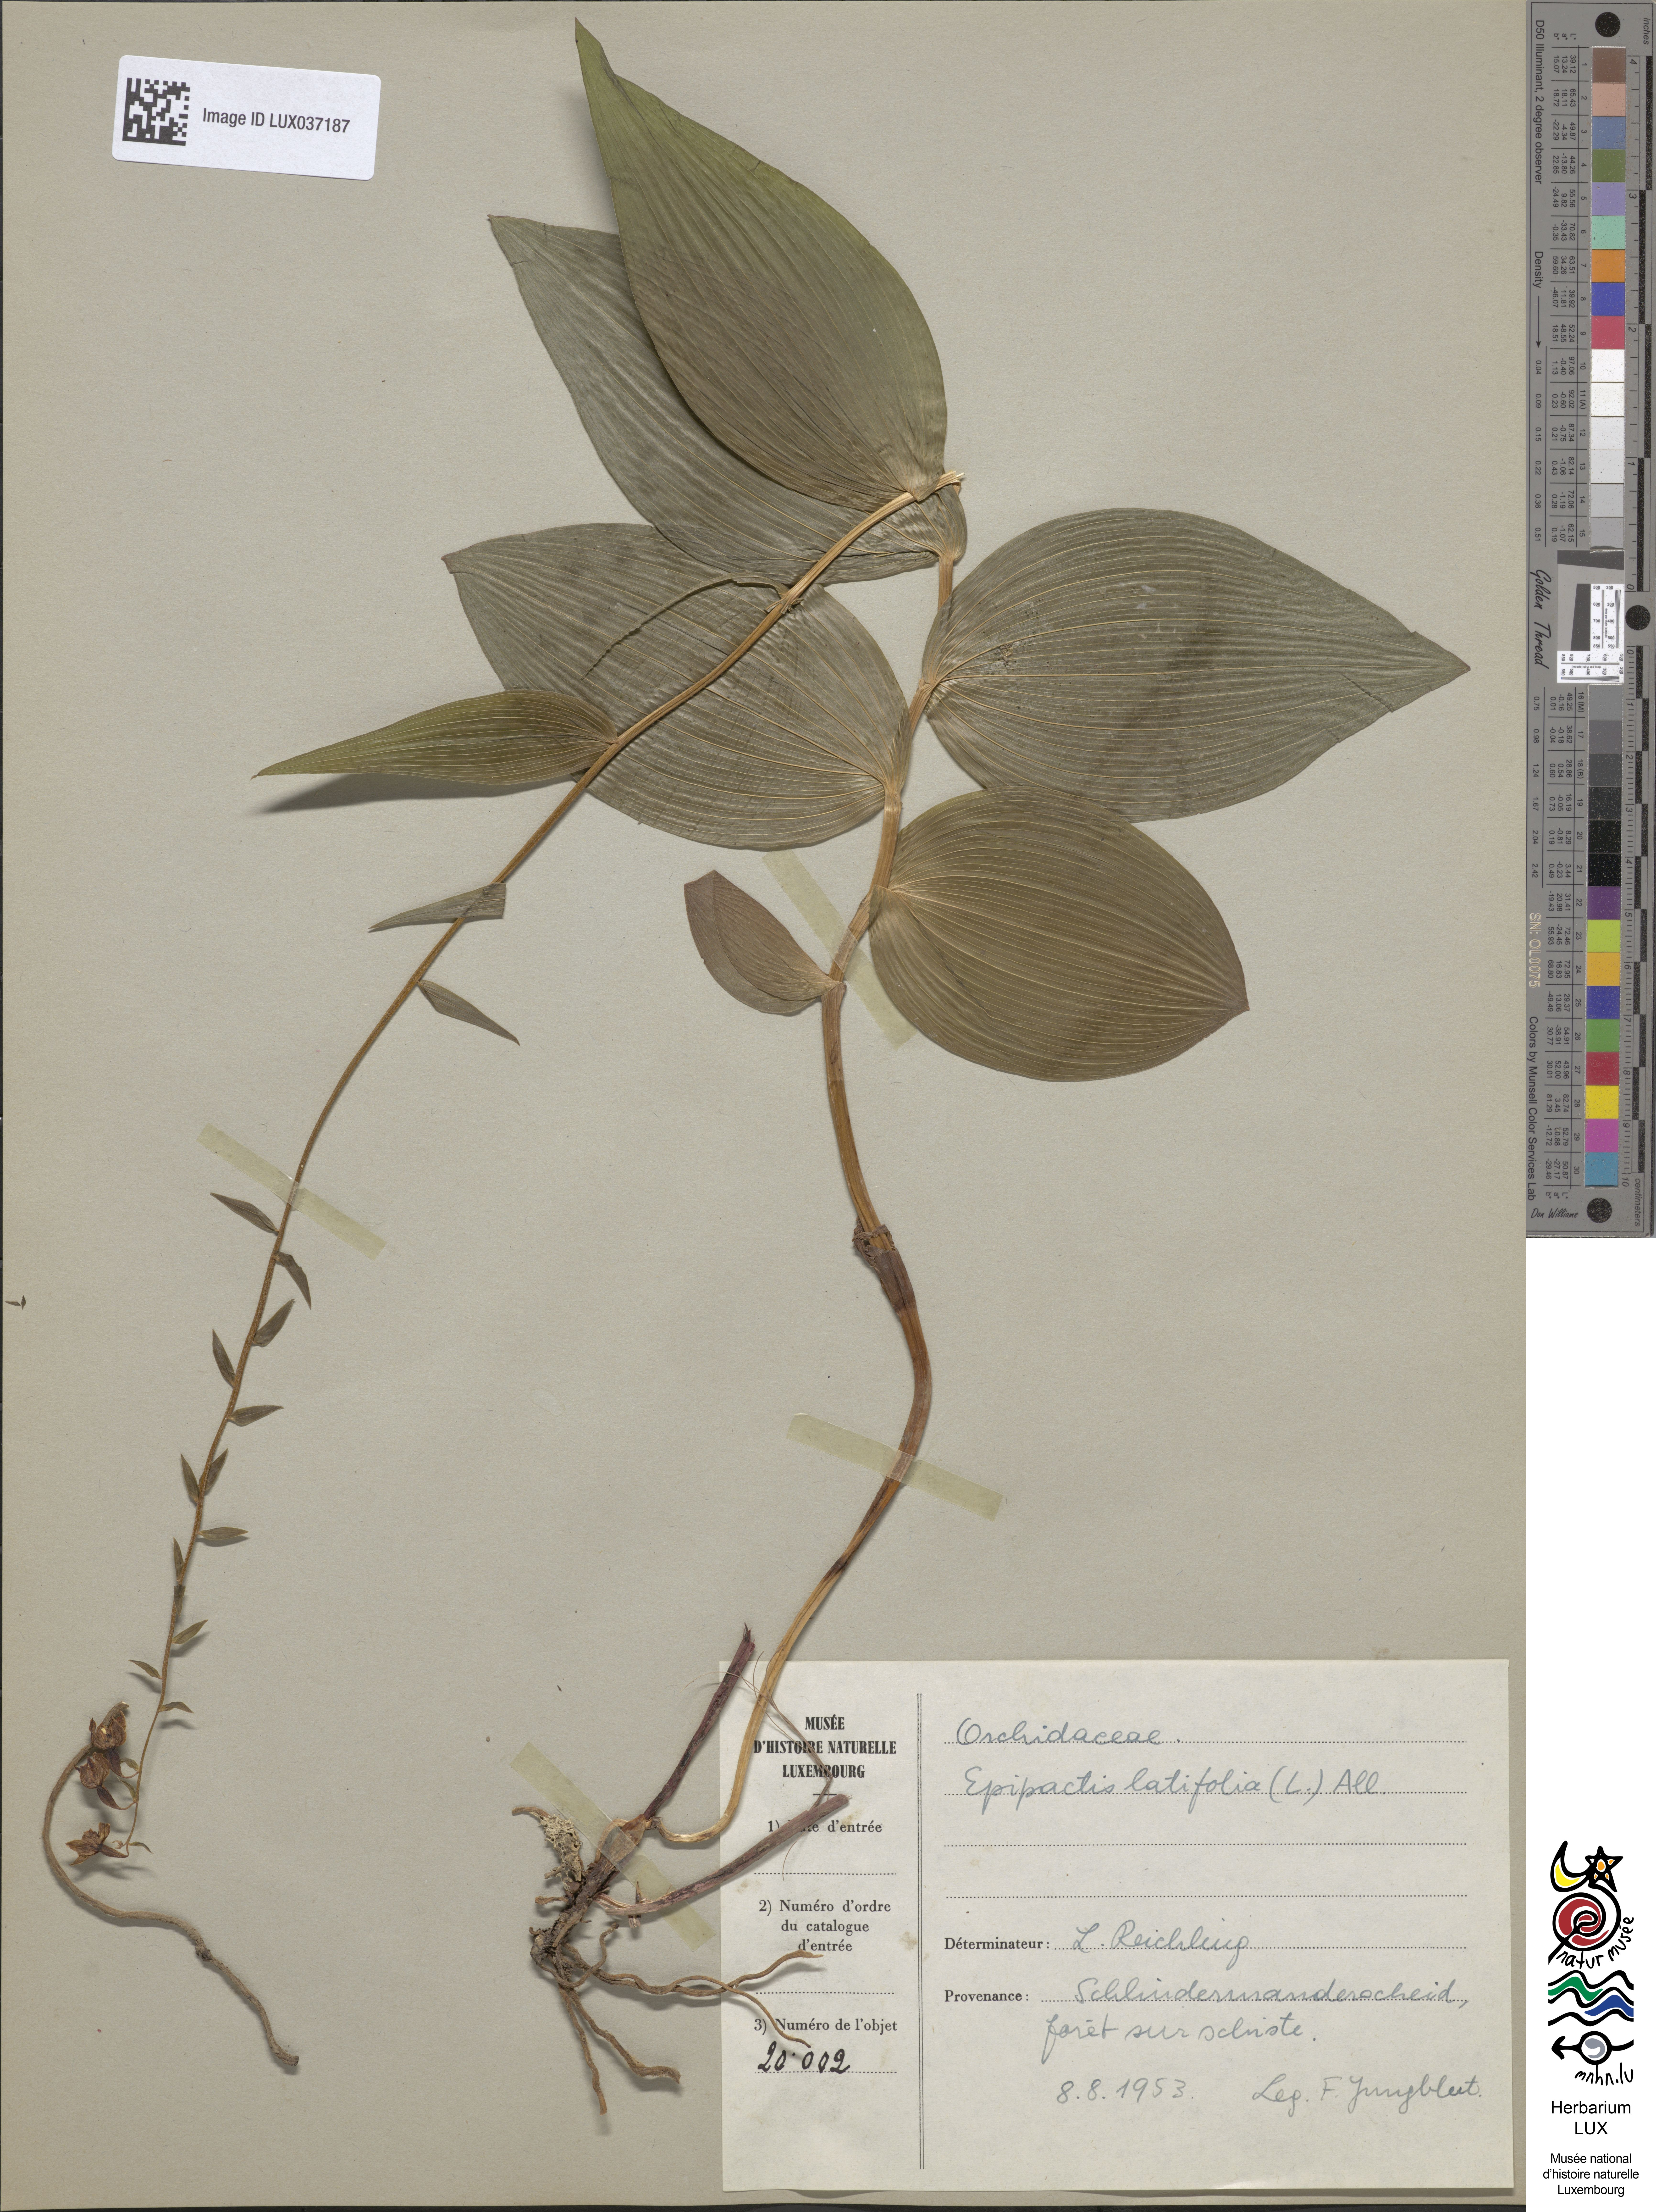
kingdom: Plantae
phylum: Tracheophyta
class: Liliopsida
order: Asparagales
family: Orchidaceae
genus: Epipactis
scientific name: Epipactis helleborine
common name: Broad-leaved helleborine
